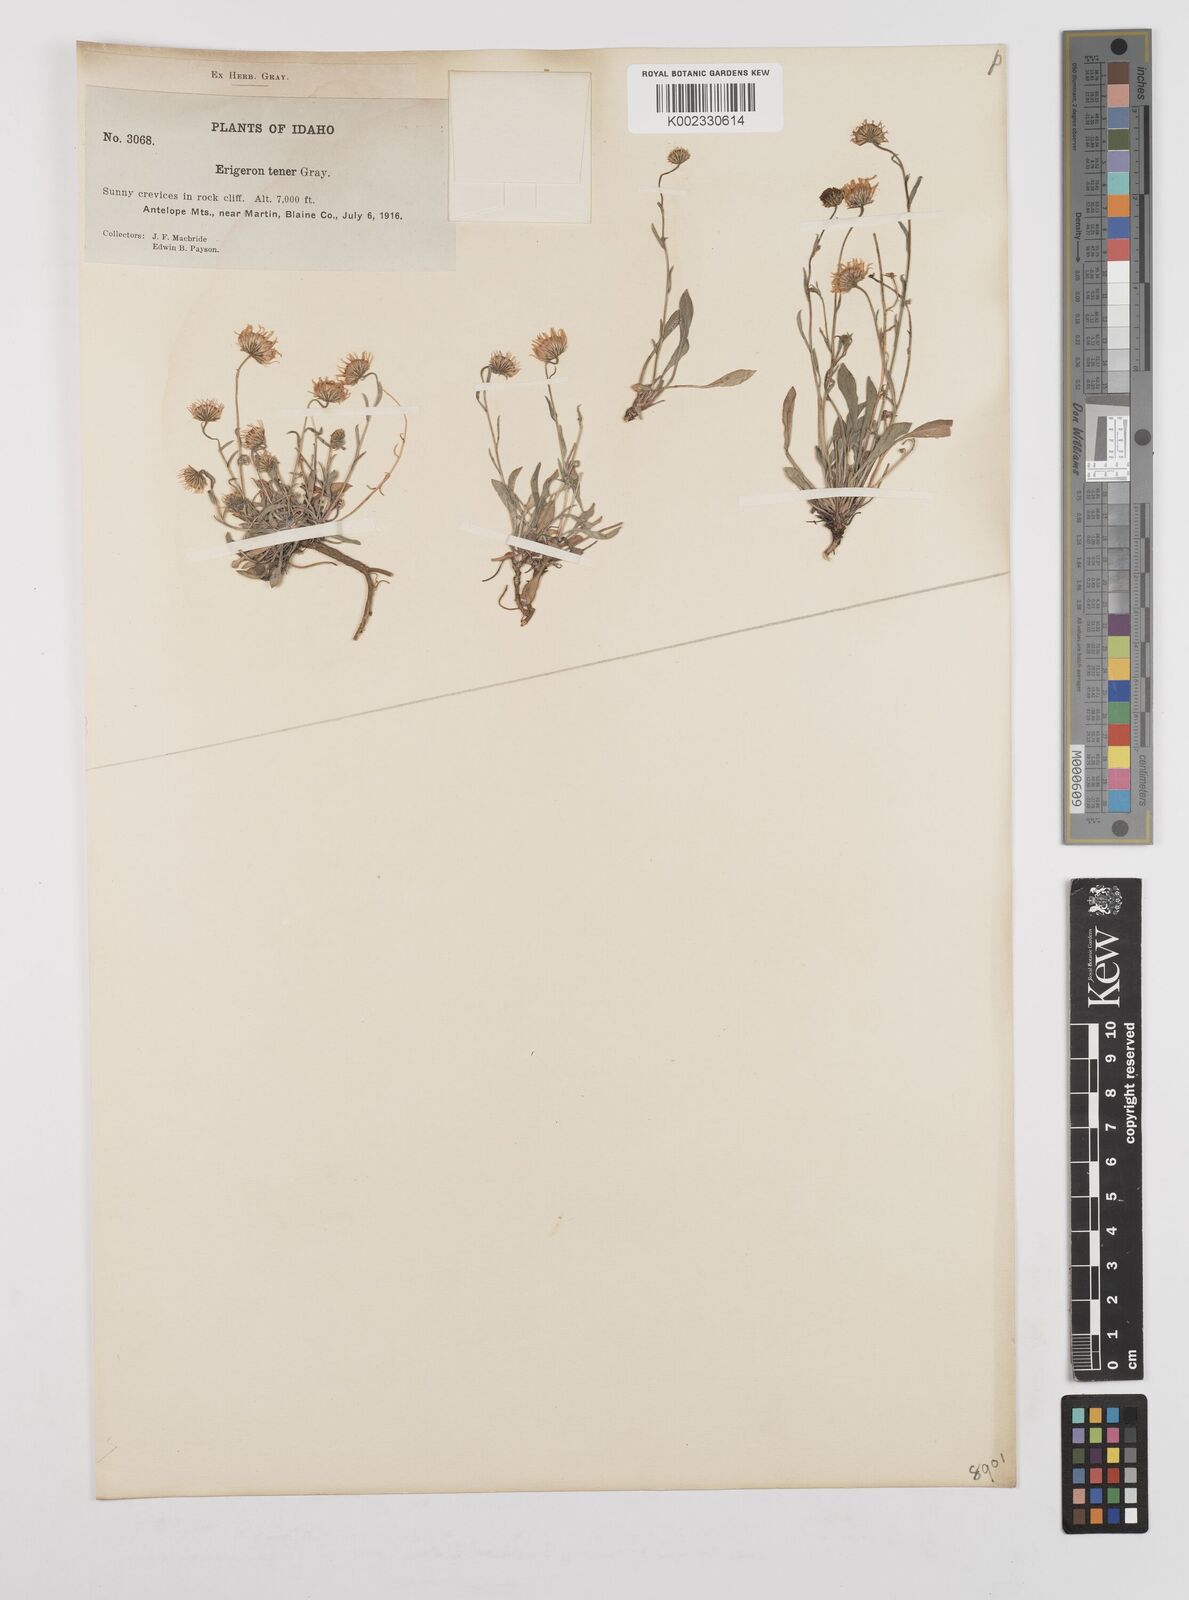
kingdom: Plantae
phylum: Tracheophyta
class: Magnoliopsida
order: Asterales
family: Asteraceae
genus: Erigeron
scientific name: Erigeron tener
